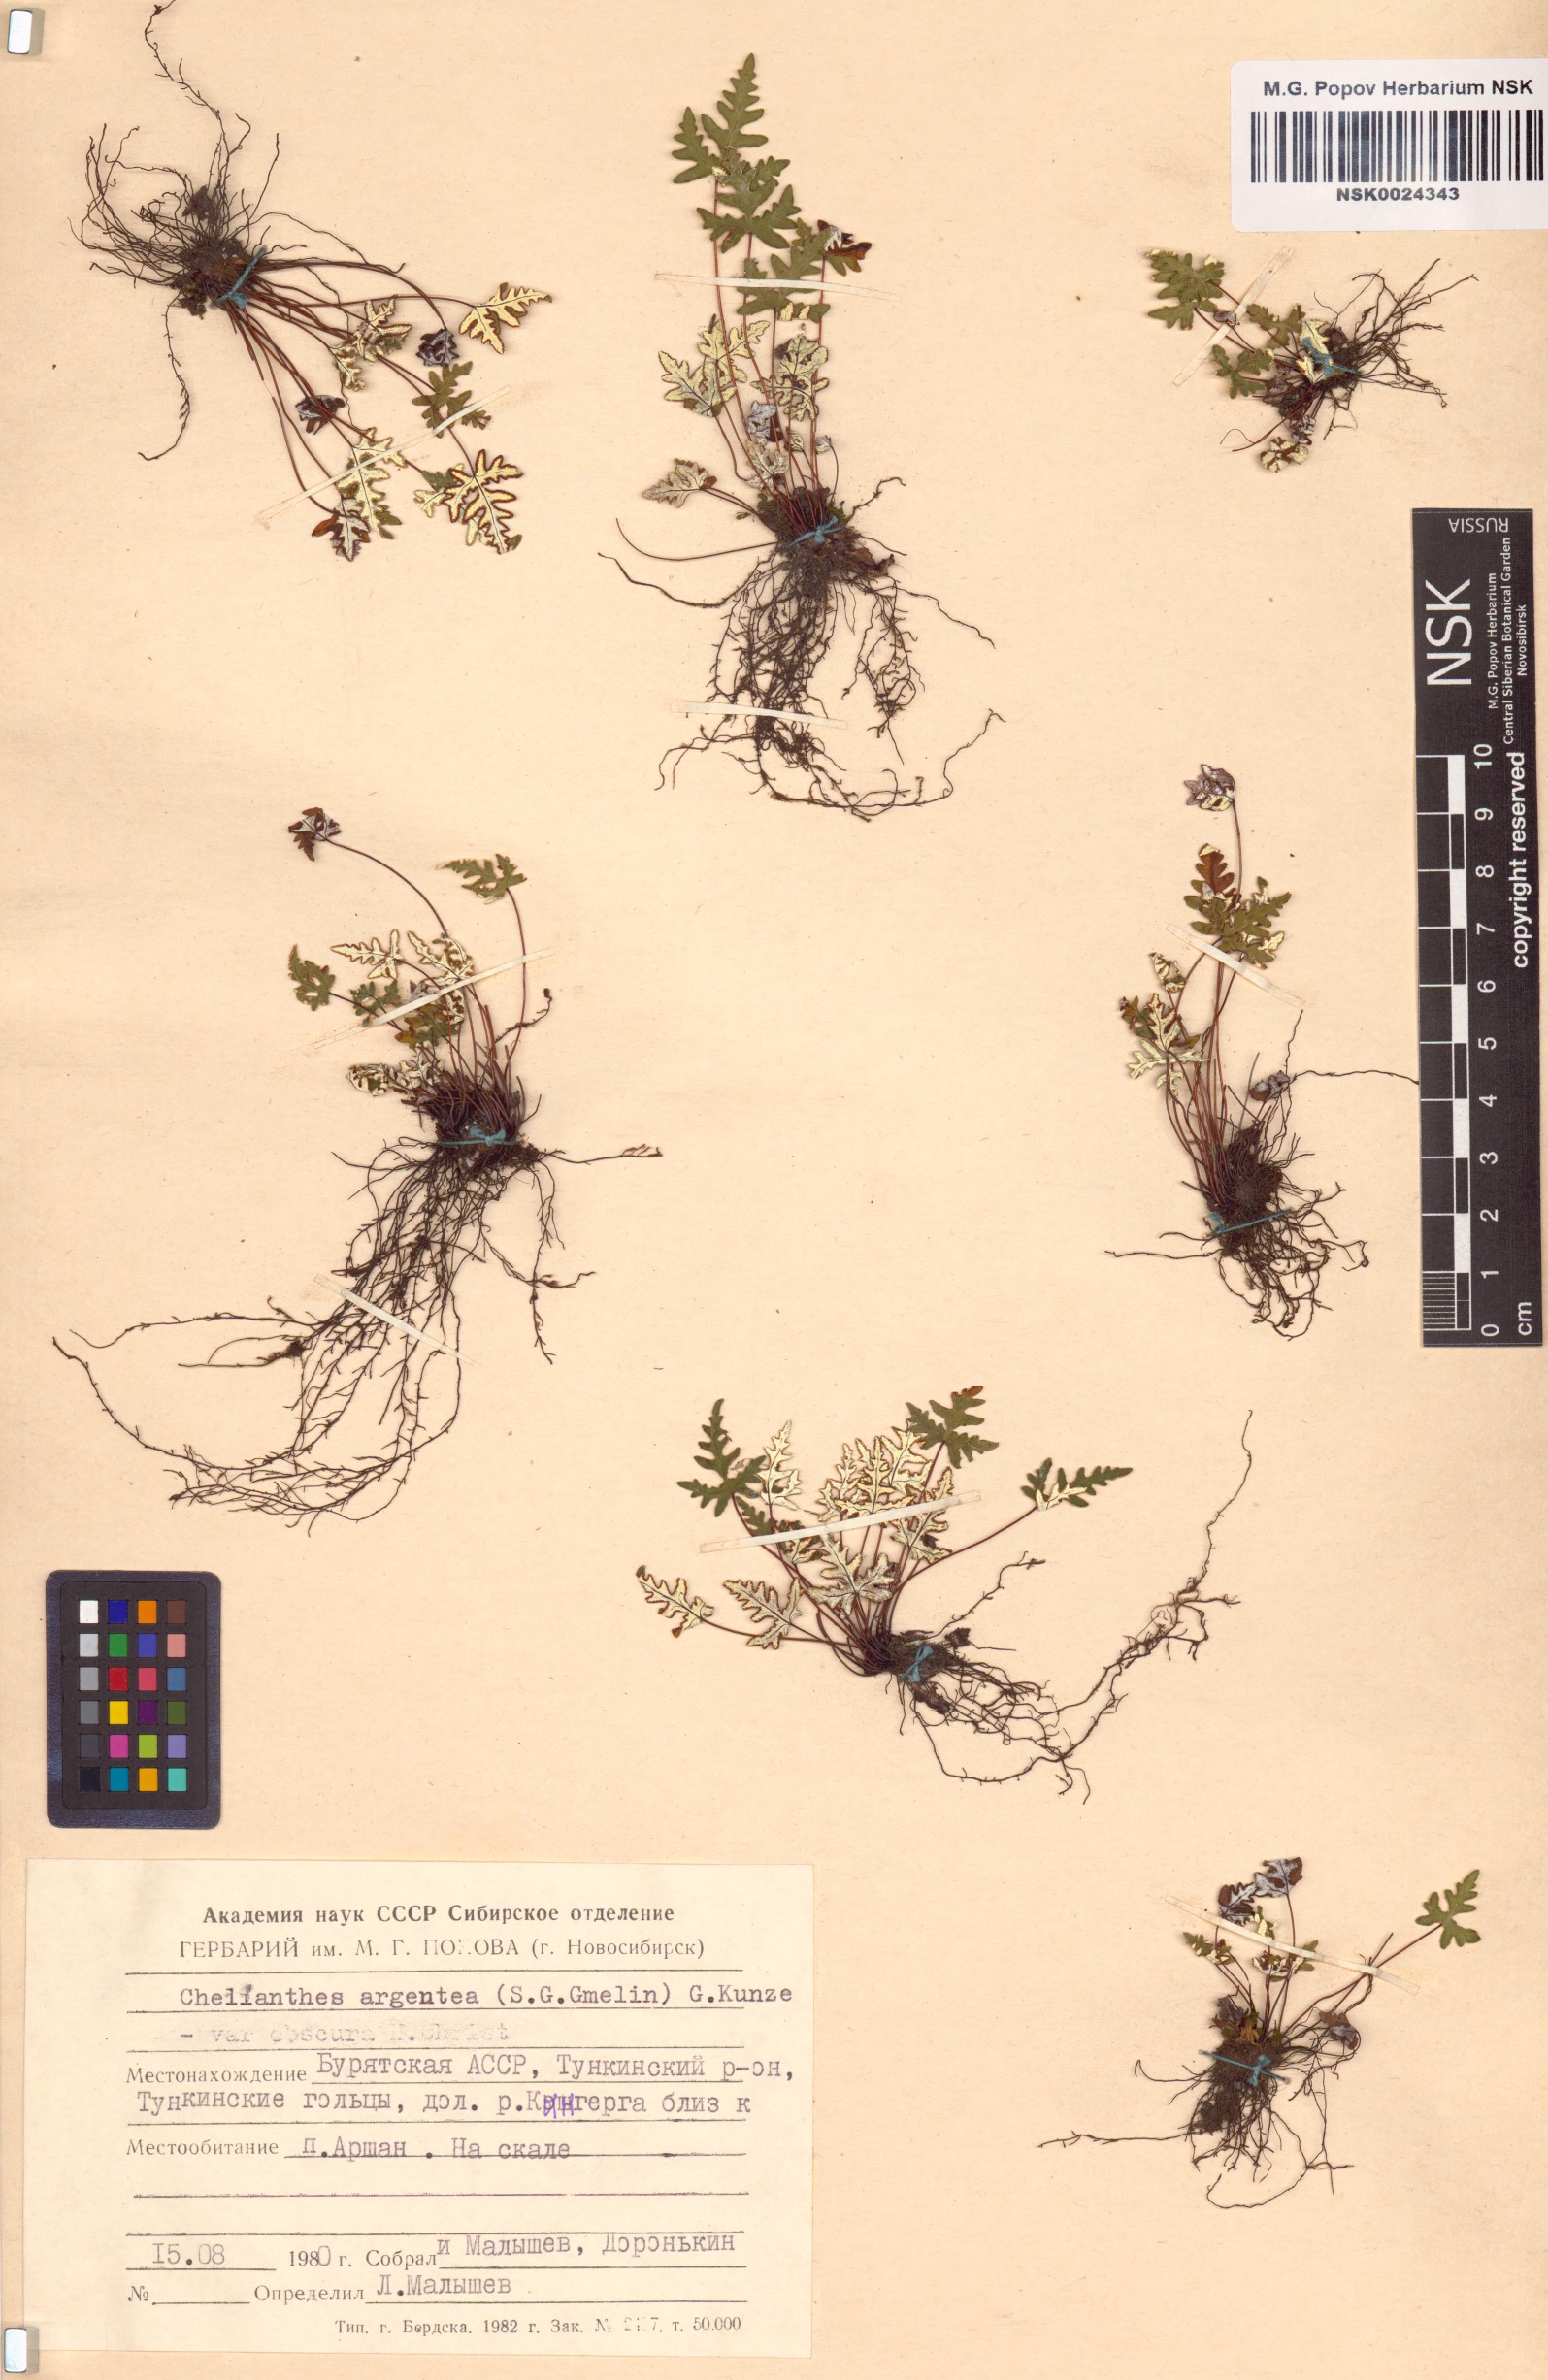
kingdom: Plantae
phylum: Tracheophyta
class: Polypodiopsida
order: Polypodiales
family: Pteridaceae
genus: Aleuritopteris
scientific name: Aleuritopteris argentea
